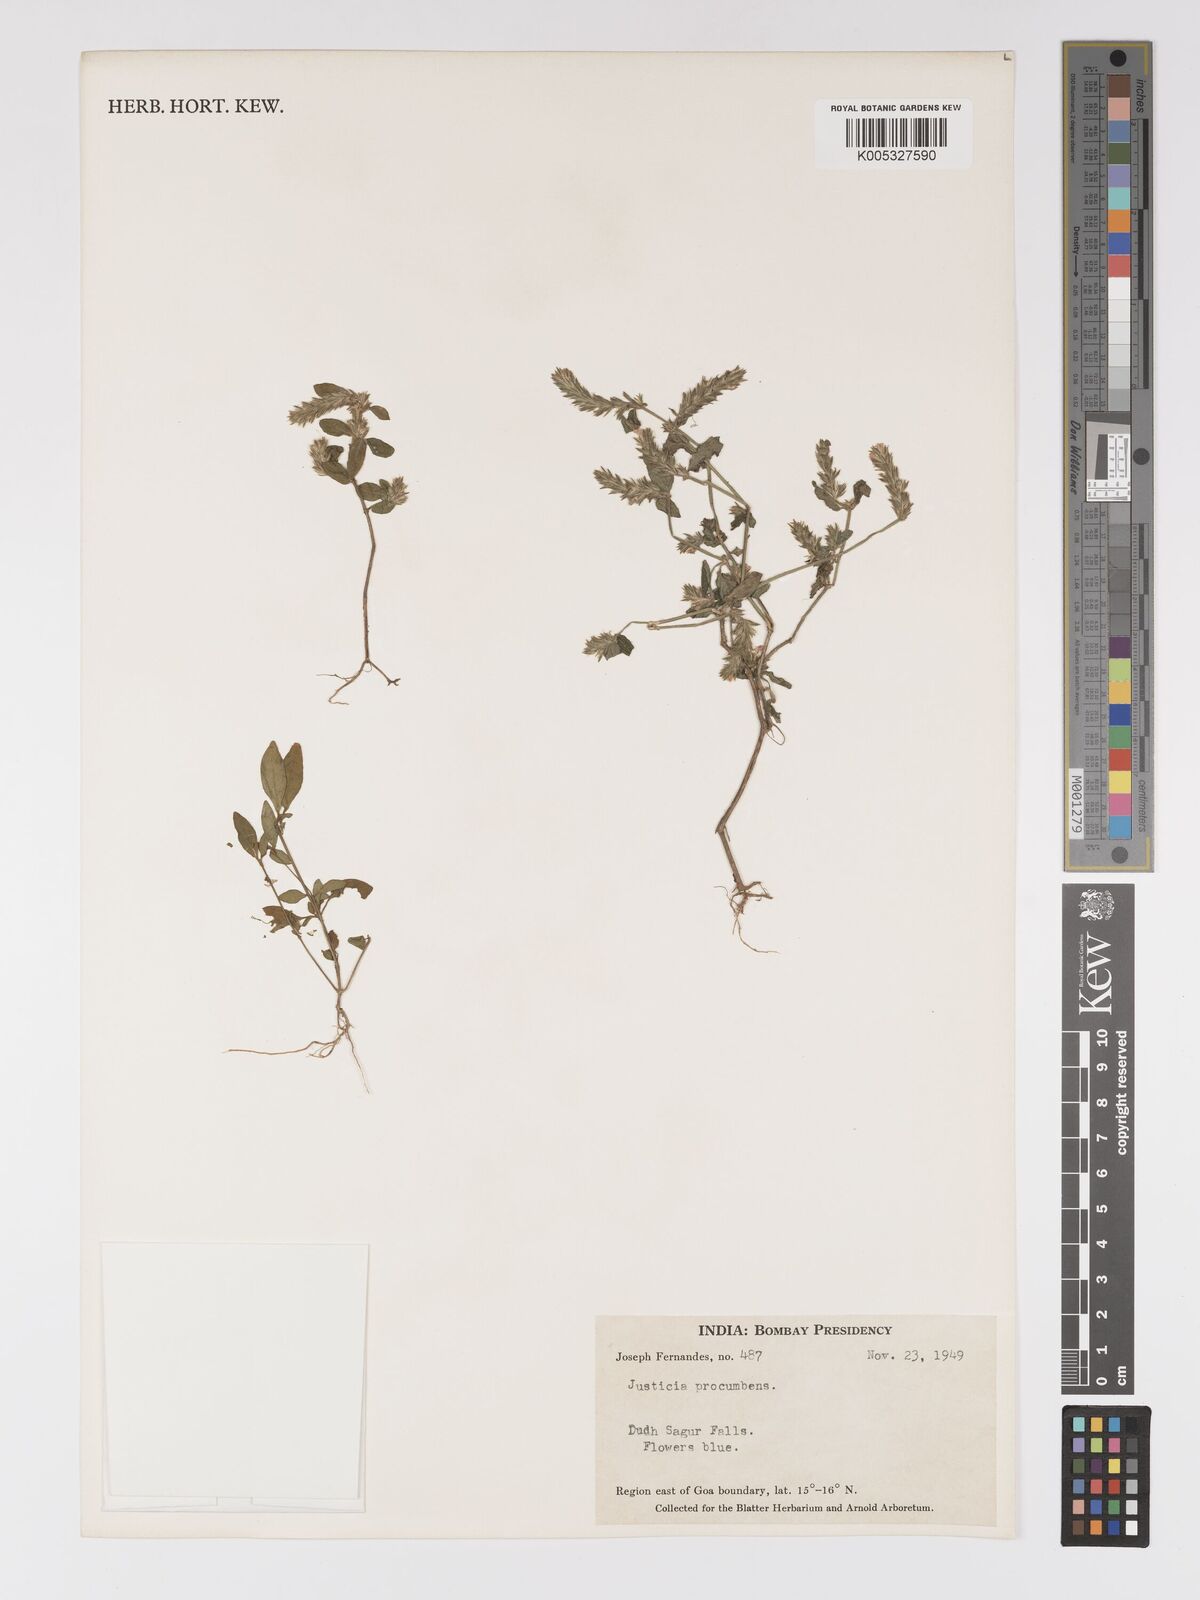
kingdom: Plantae
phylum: Tracheophyta
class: Magnoliopsida
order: Lamiales
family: Acanthaceae
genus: Rostellularia
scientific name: Rostellularia procumbens
